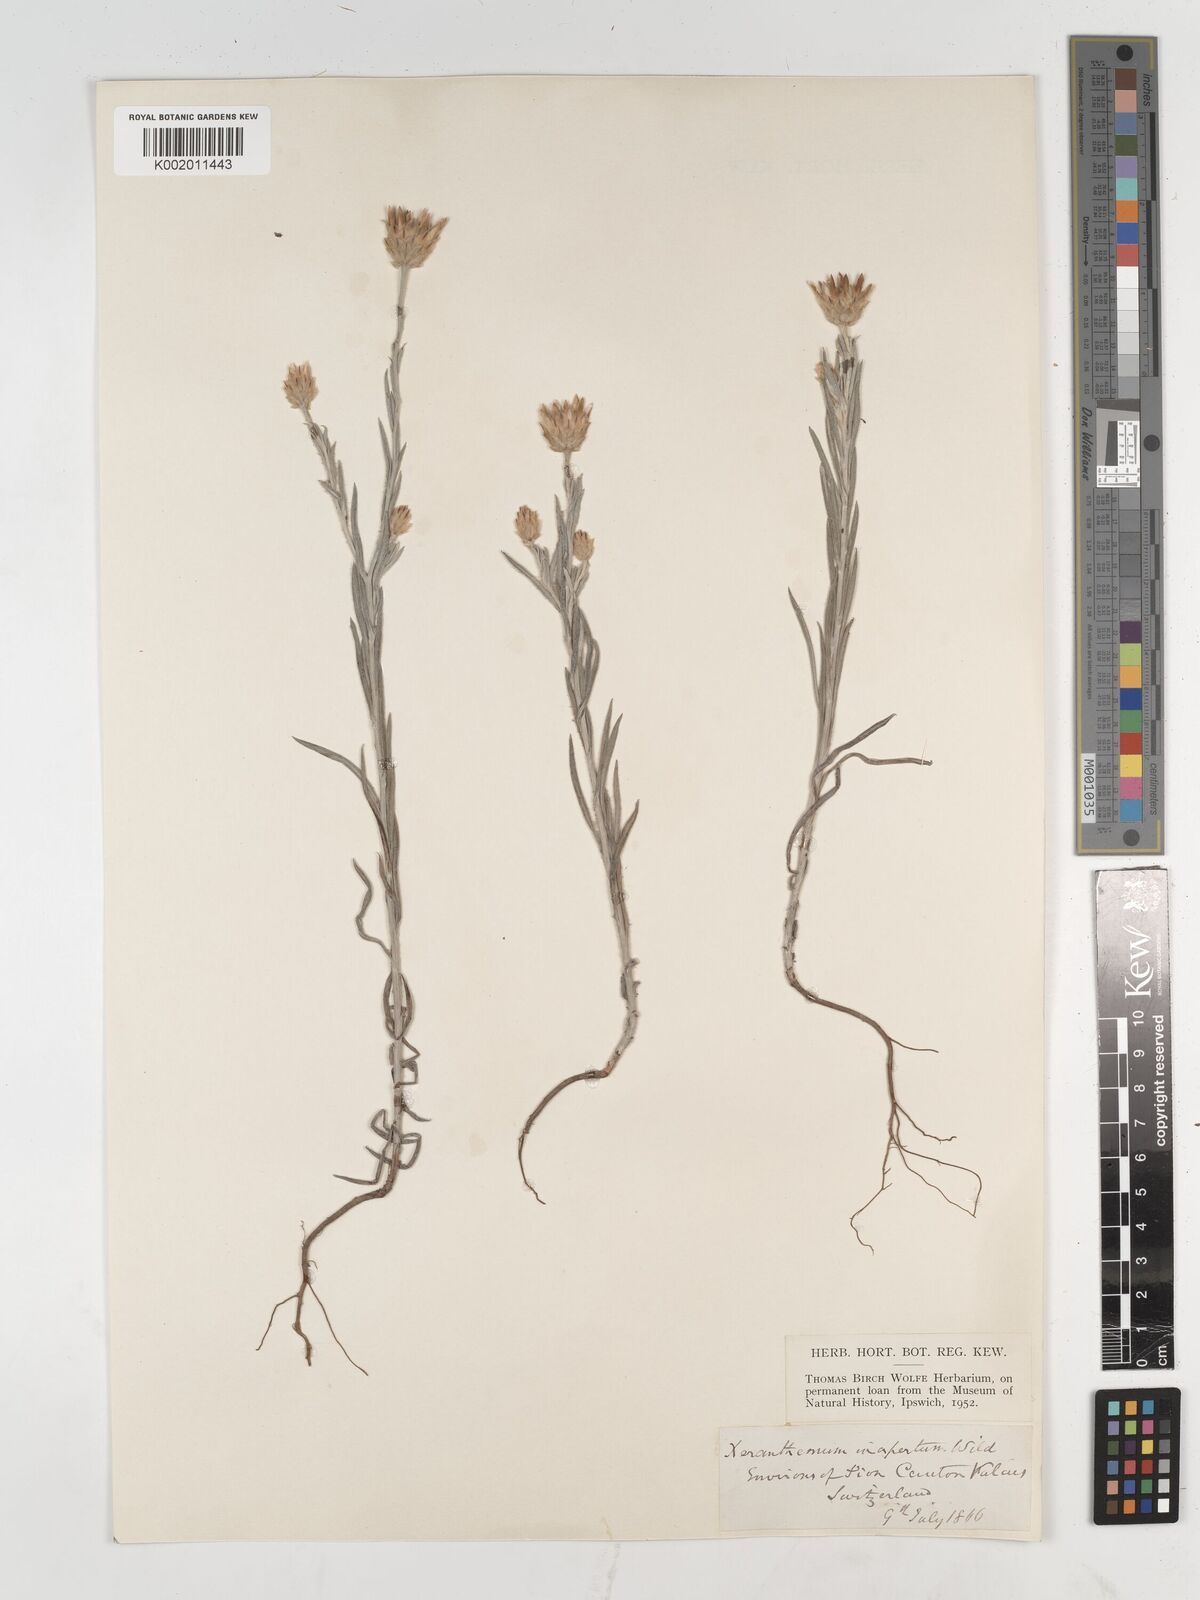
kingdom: Plantae
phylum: Tracheophyta
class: Magnoliopsida
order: Asterales
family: Asteraceae
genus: Xeranthemum
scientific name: Xeranthemum
